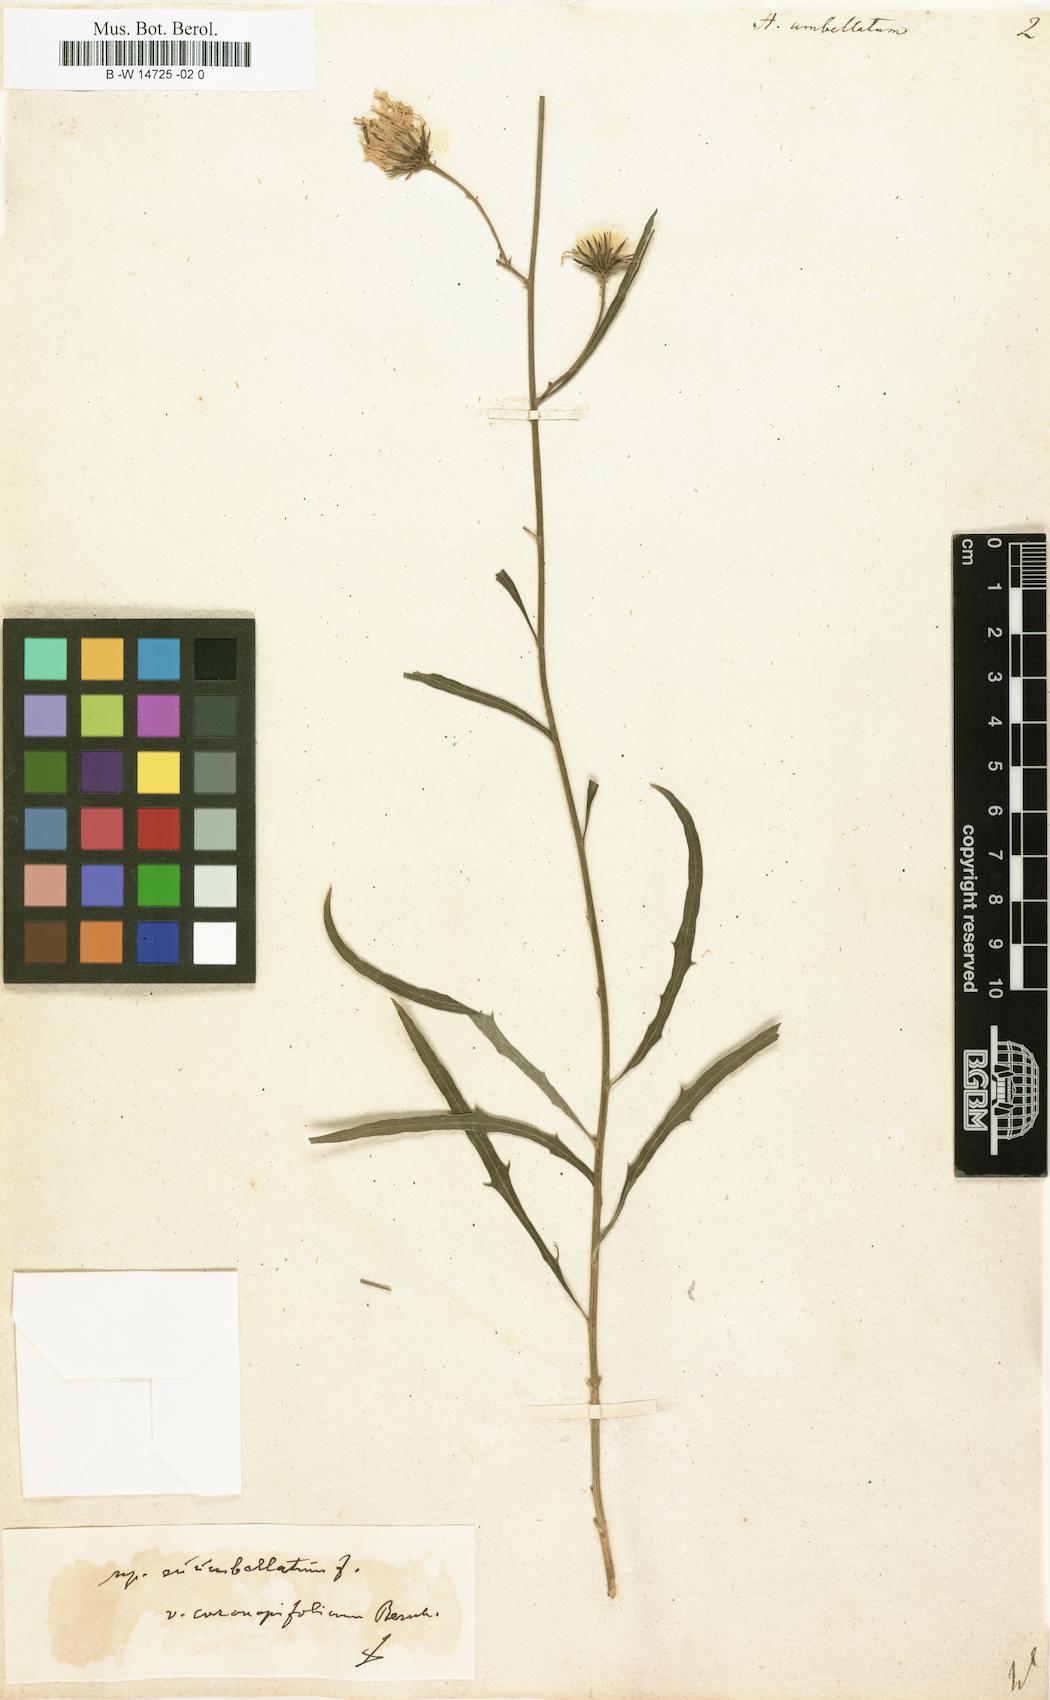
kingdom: Plantae
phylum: Tracheophyta
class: Magnoliopsida
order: Asterales
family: Asteraceae
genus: Hieracium
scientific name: Hieracium umbellatum
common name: Northern hawkweed
